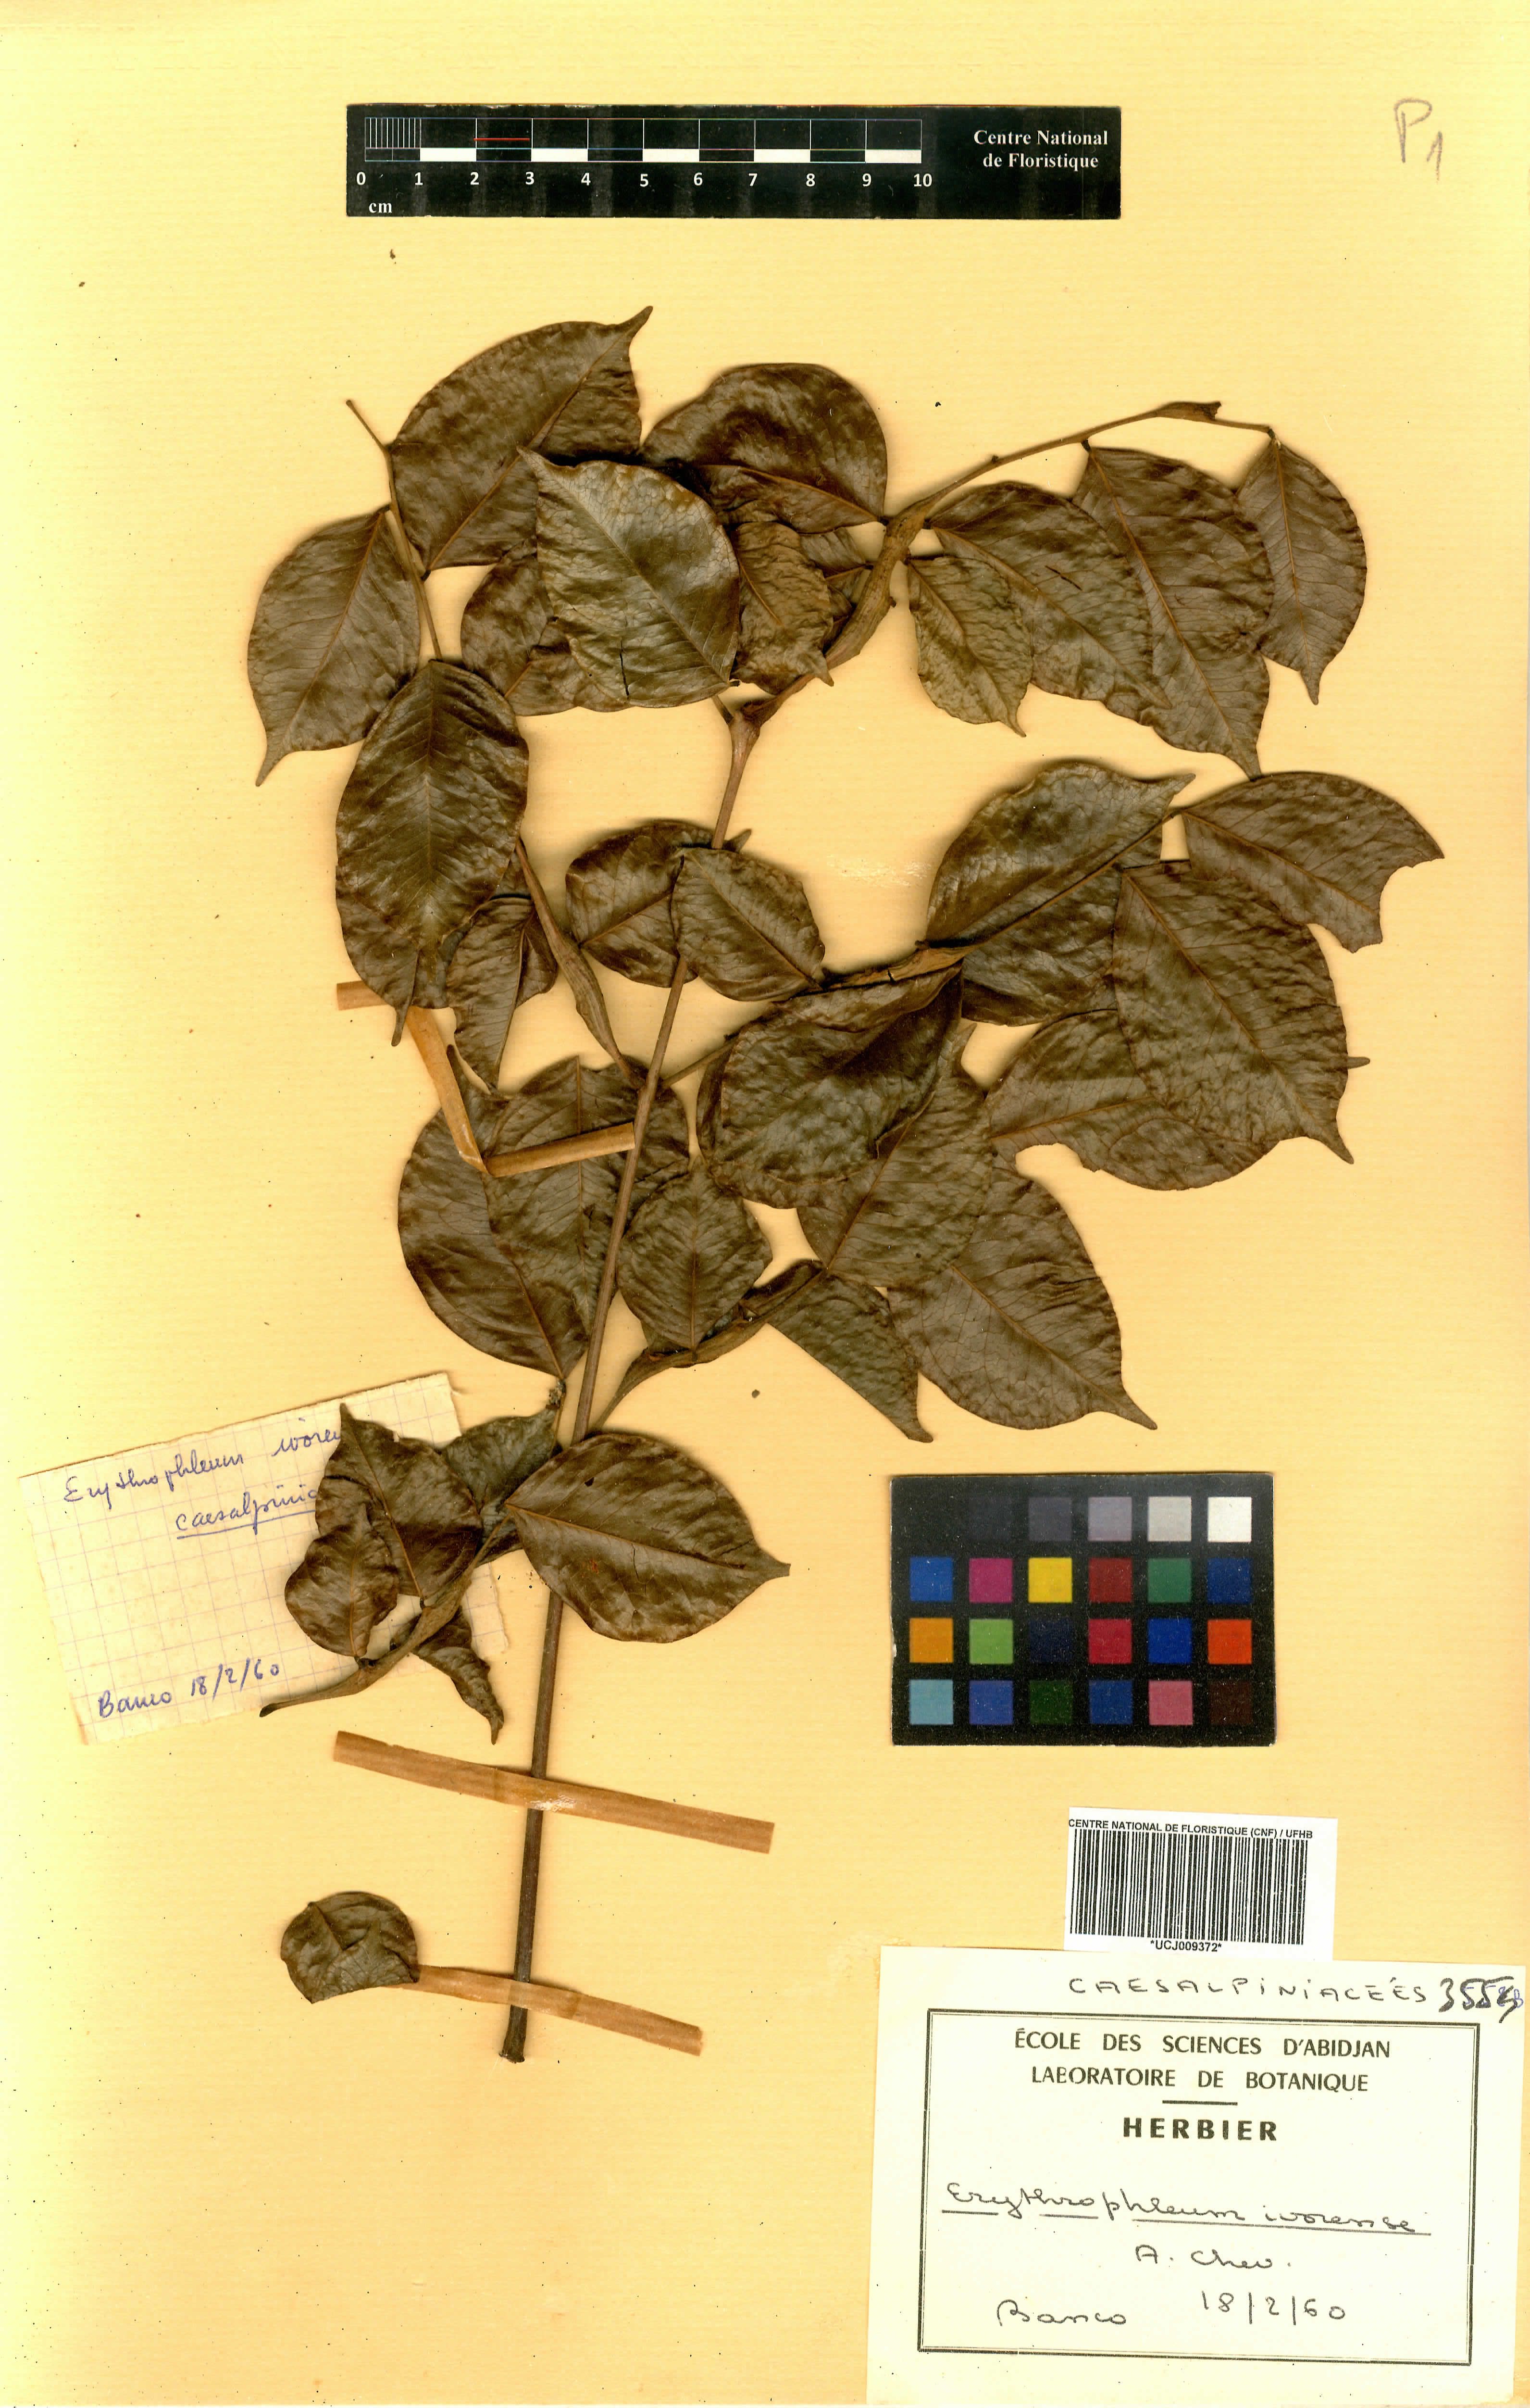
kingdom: Plantae
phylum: Tracheophyta
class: Magnoliopsida
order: Fabales
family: Fabaceae
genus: Erythrophleum
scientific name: Erythrophleum ivorense
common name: Ordealtree
